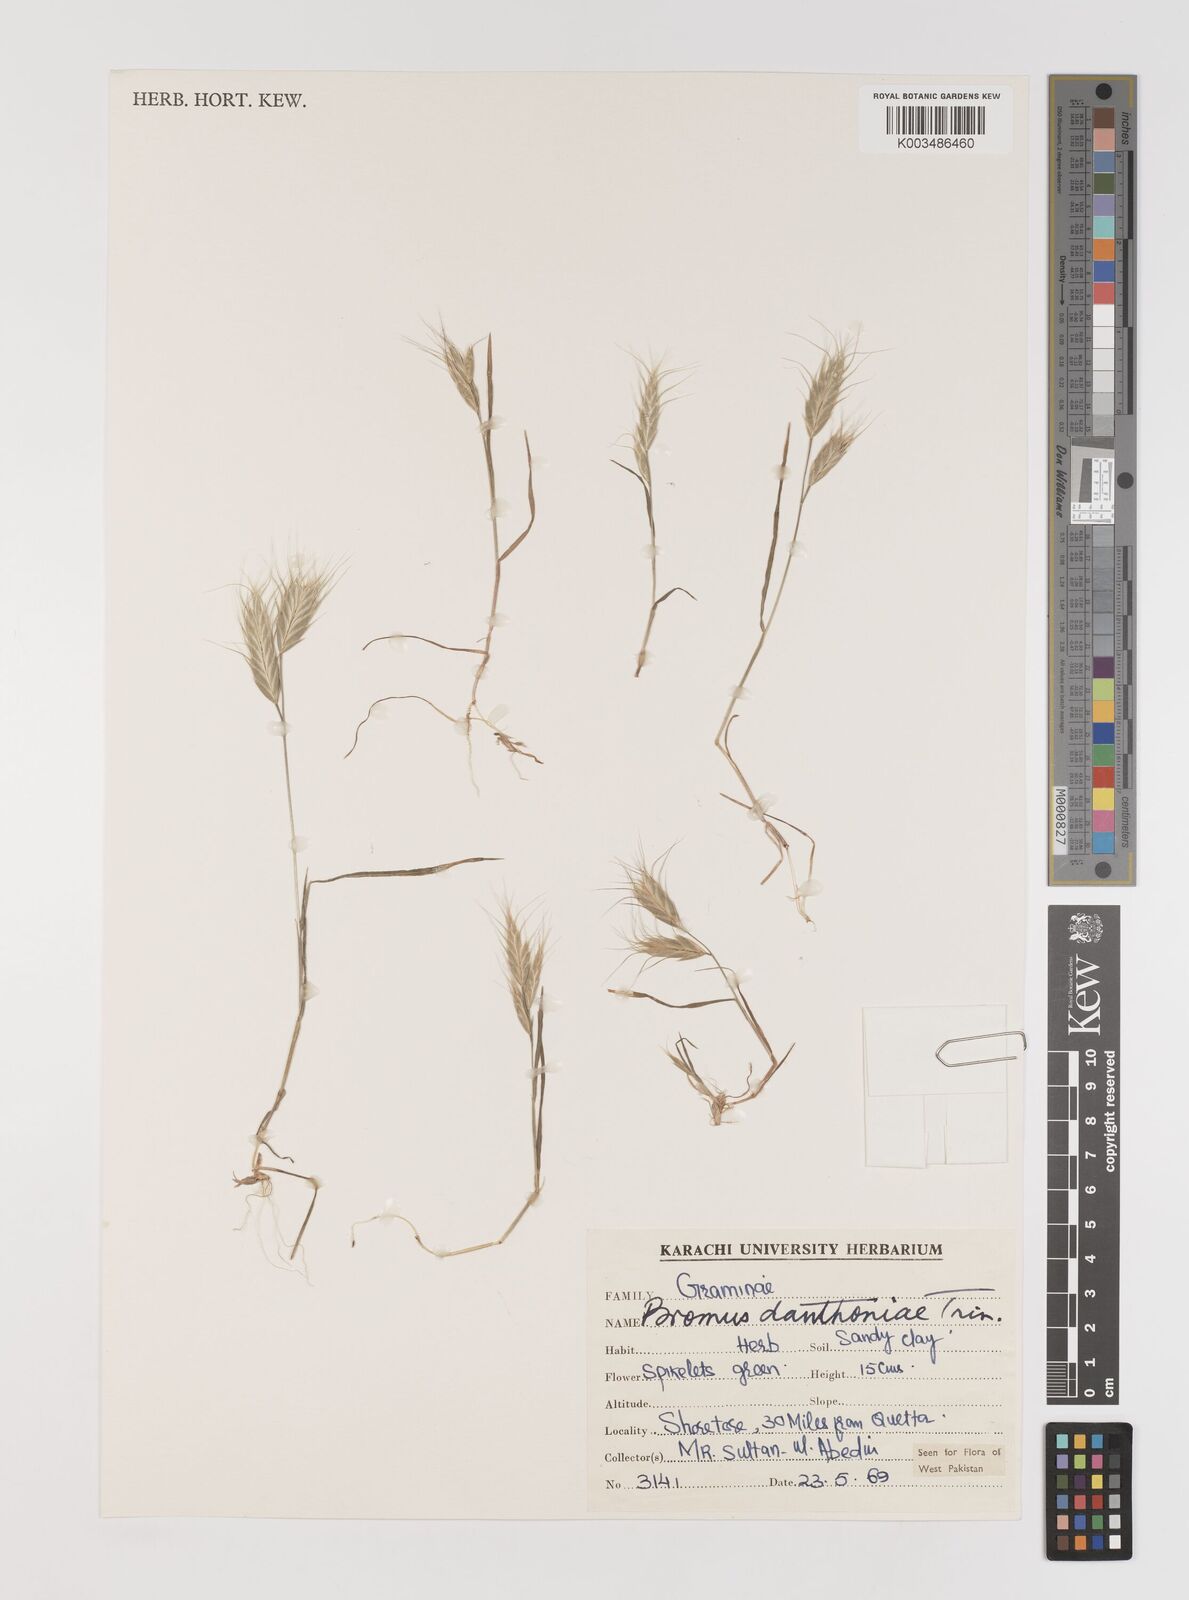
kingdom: Plantae
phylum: Tracheophyta
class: Liliopsida
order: Poales
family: Poaceae
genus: Bromus
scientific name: Bromus danthoniae
